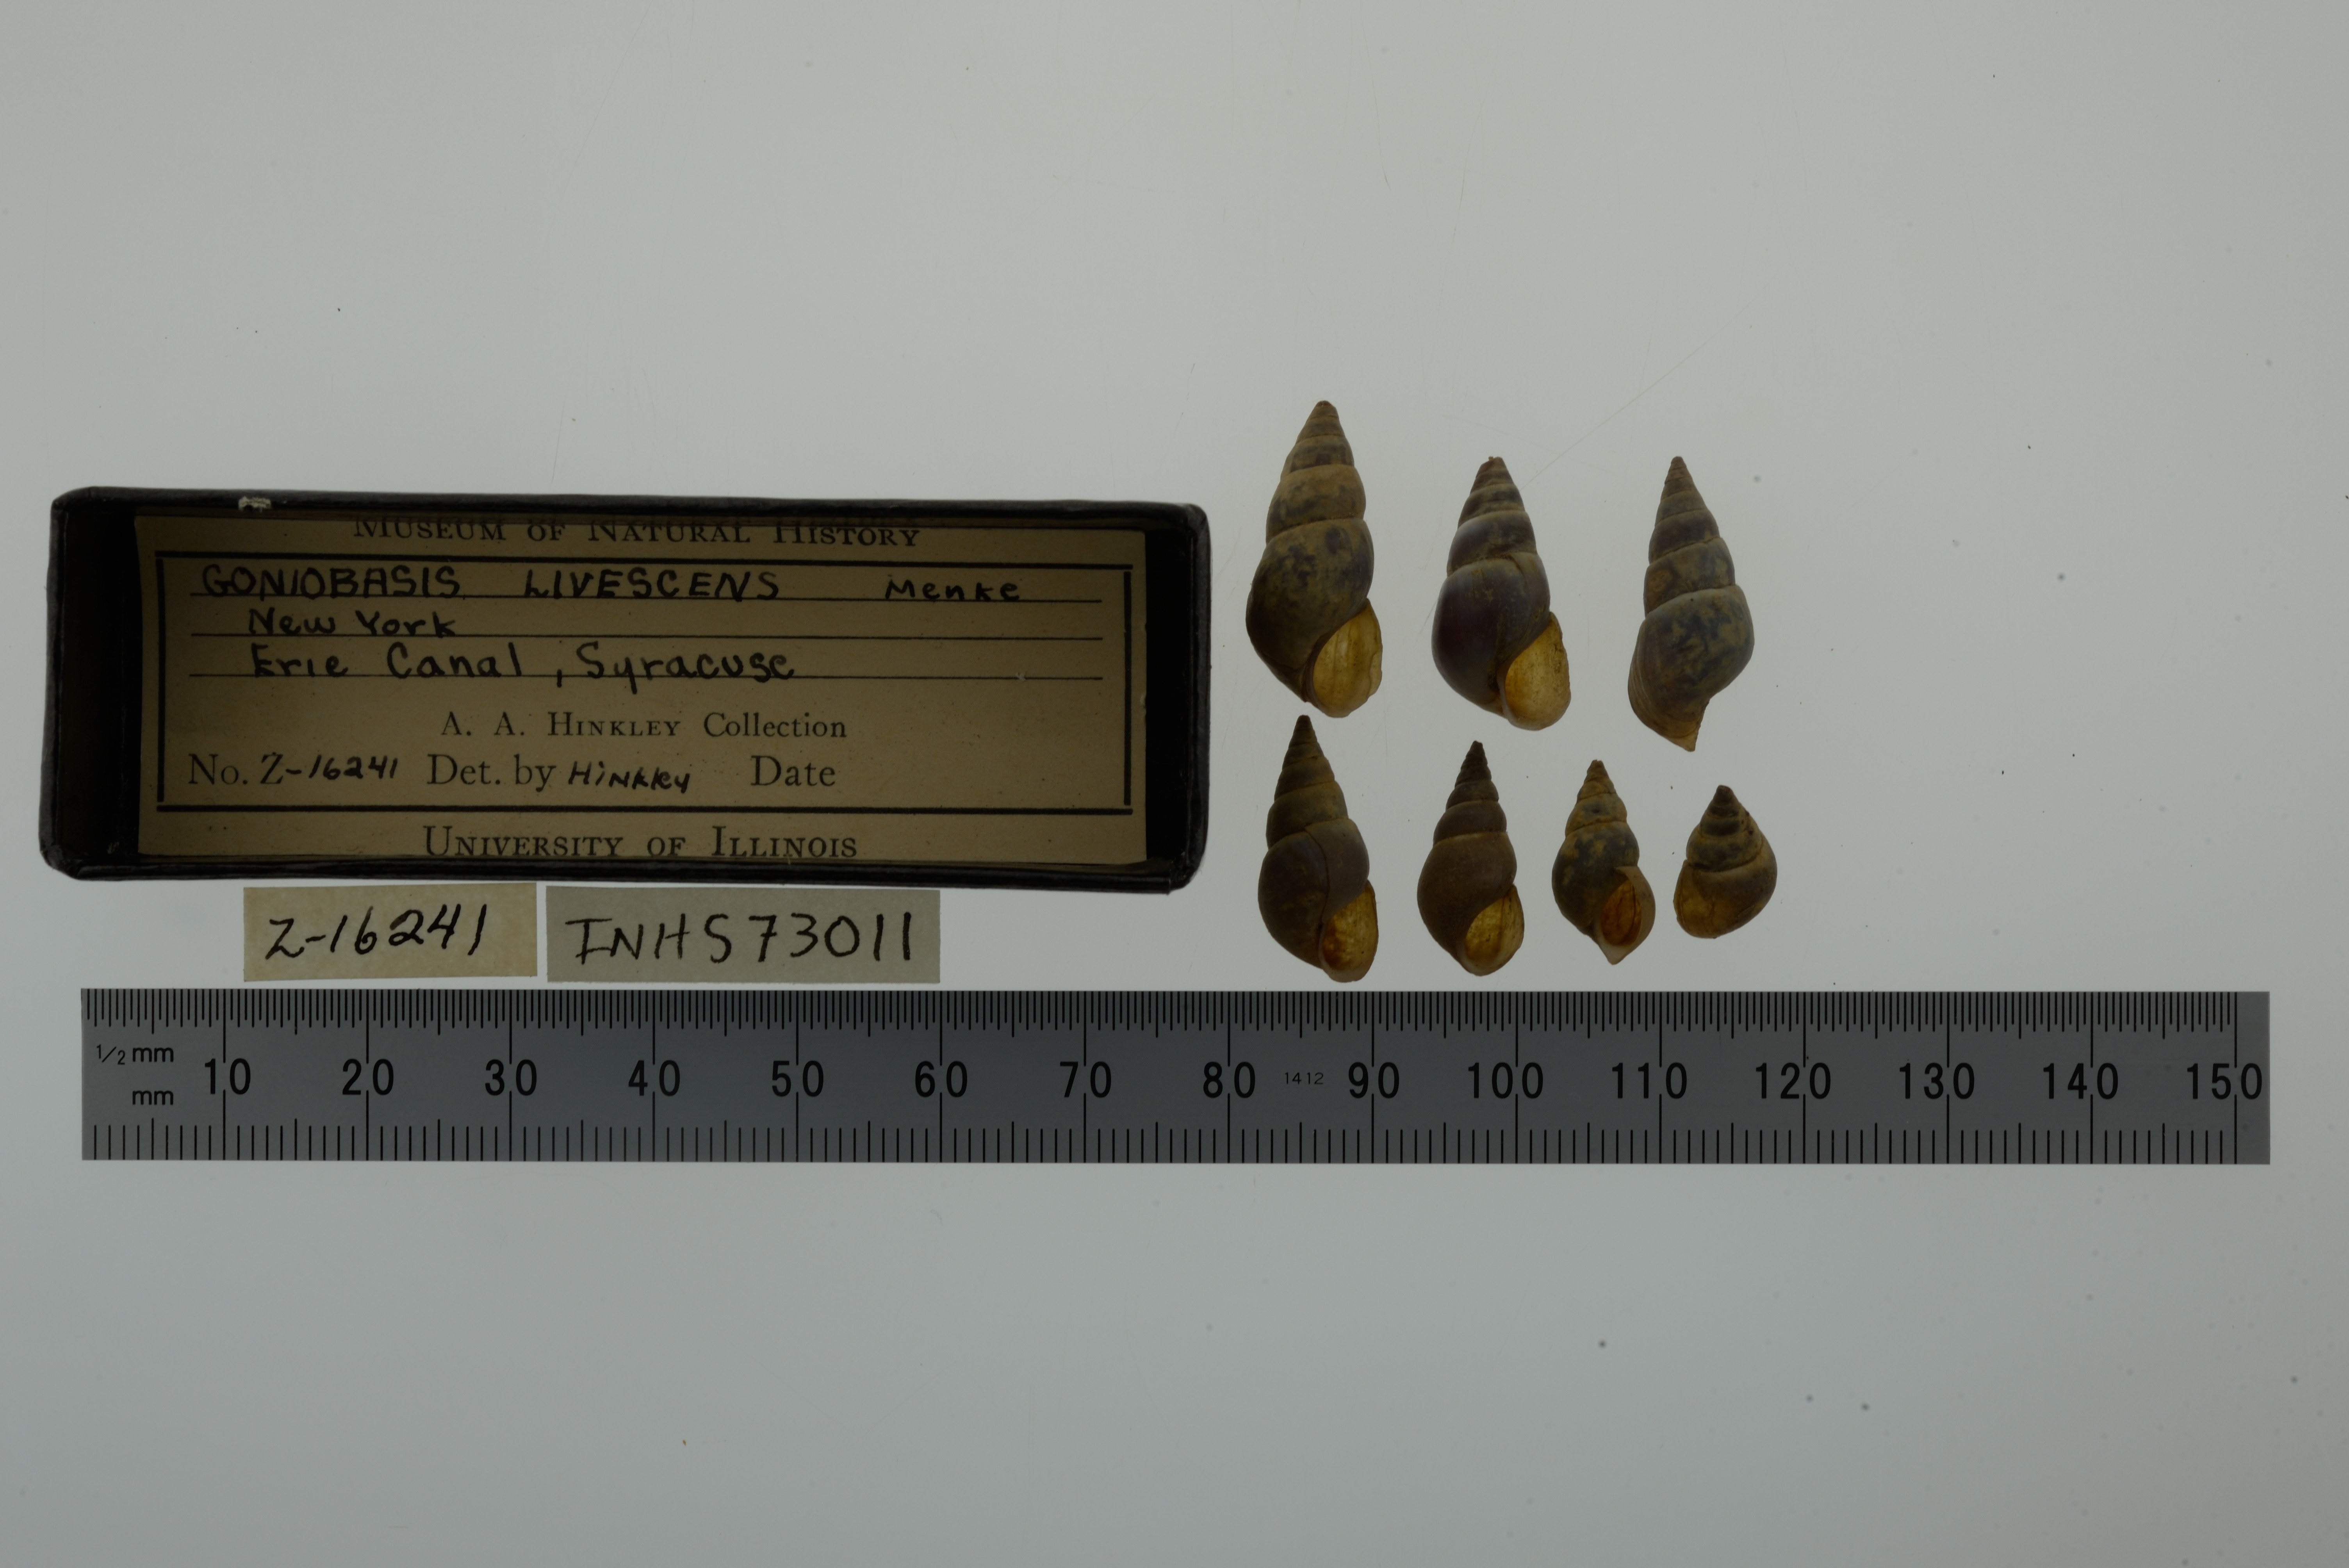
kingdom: Animalia
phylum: Mollusca
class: Gastropoda
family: Pleuroceridae
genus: Elimia
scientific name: Elimia livescens
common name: Liver elimia
